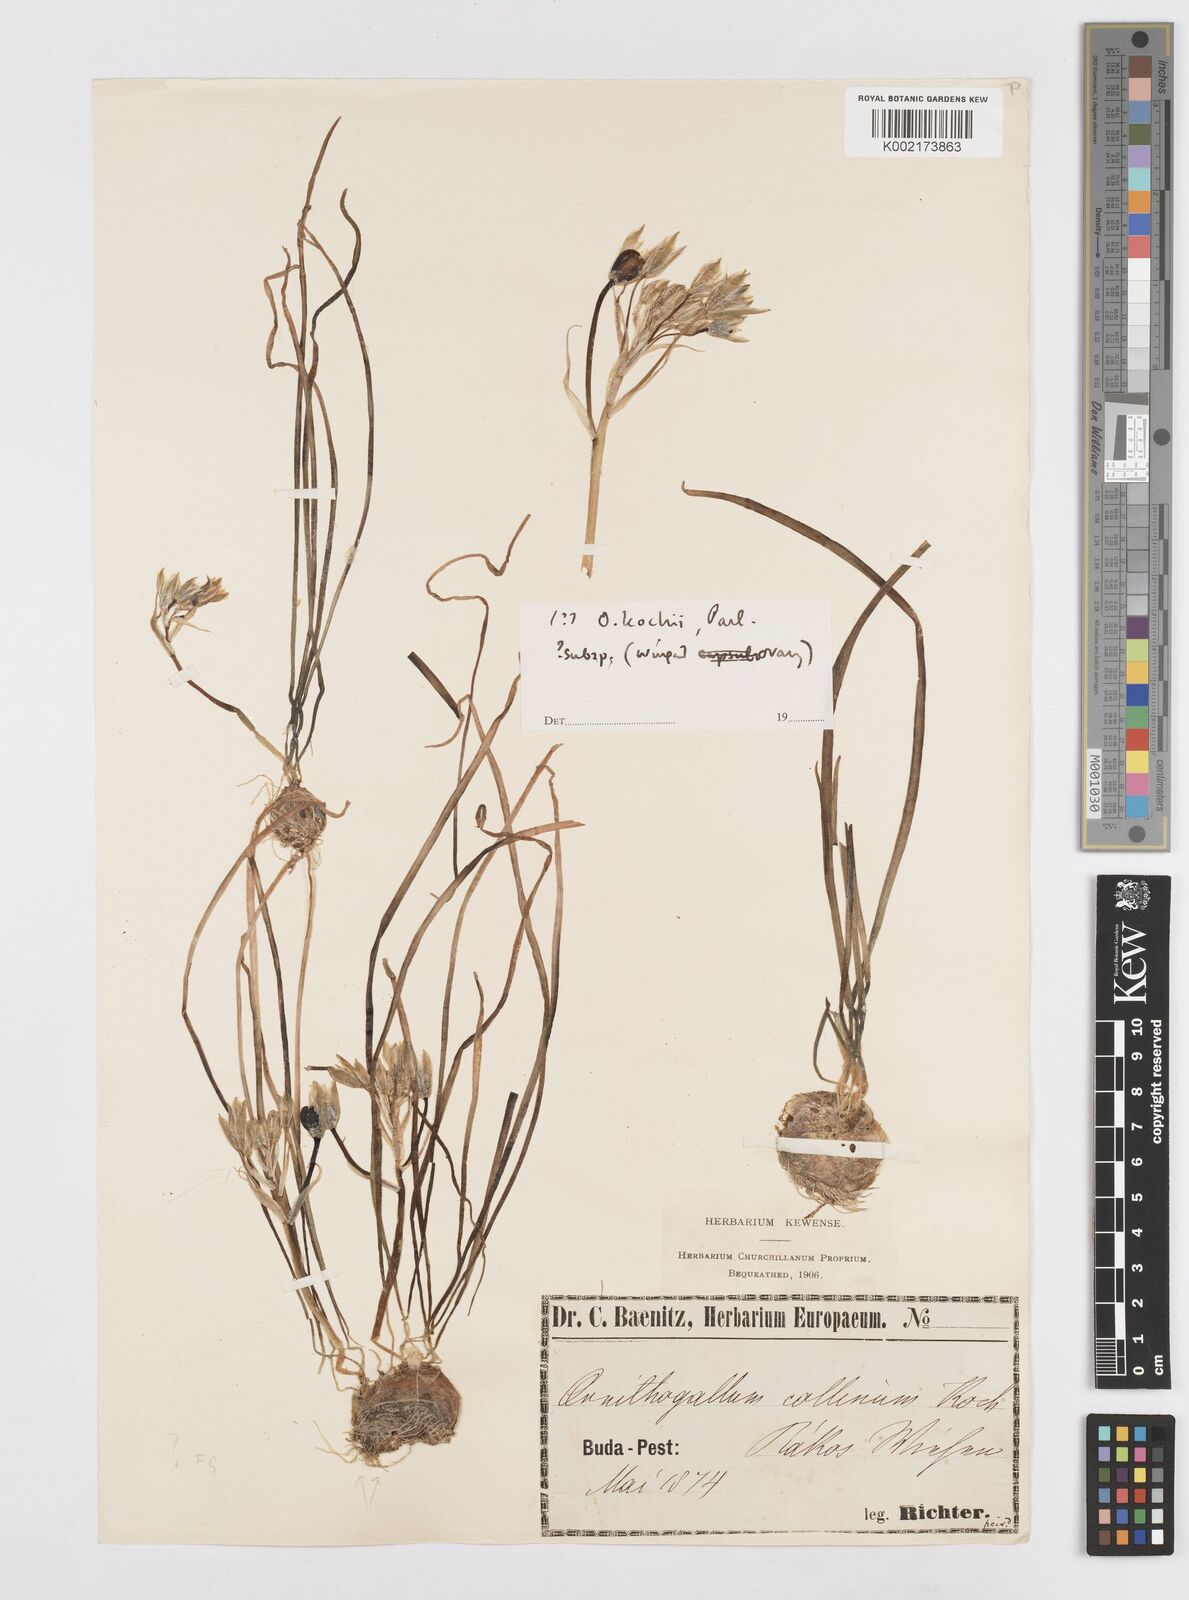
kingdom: Plantae
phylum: Tracheophyta
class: Liliopsida
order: Asparagales
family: Asparagaceae
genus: Ornithogalum
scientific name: Ornithogalum orthophyllum
